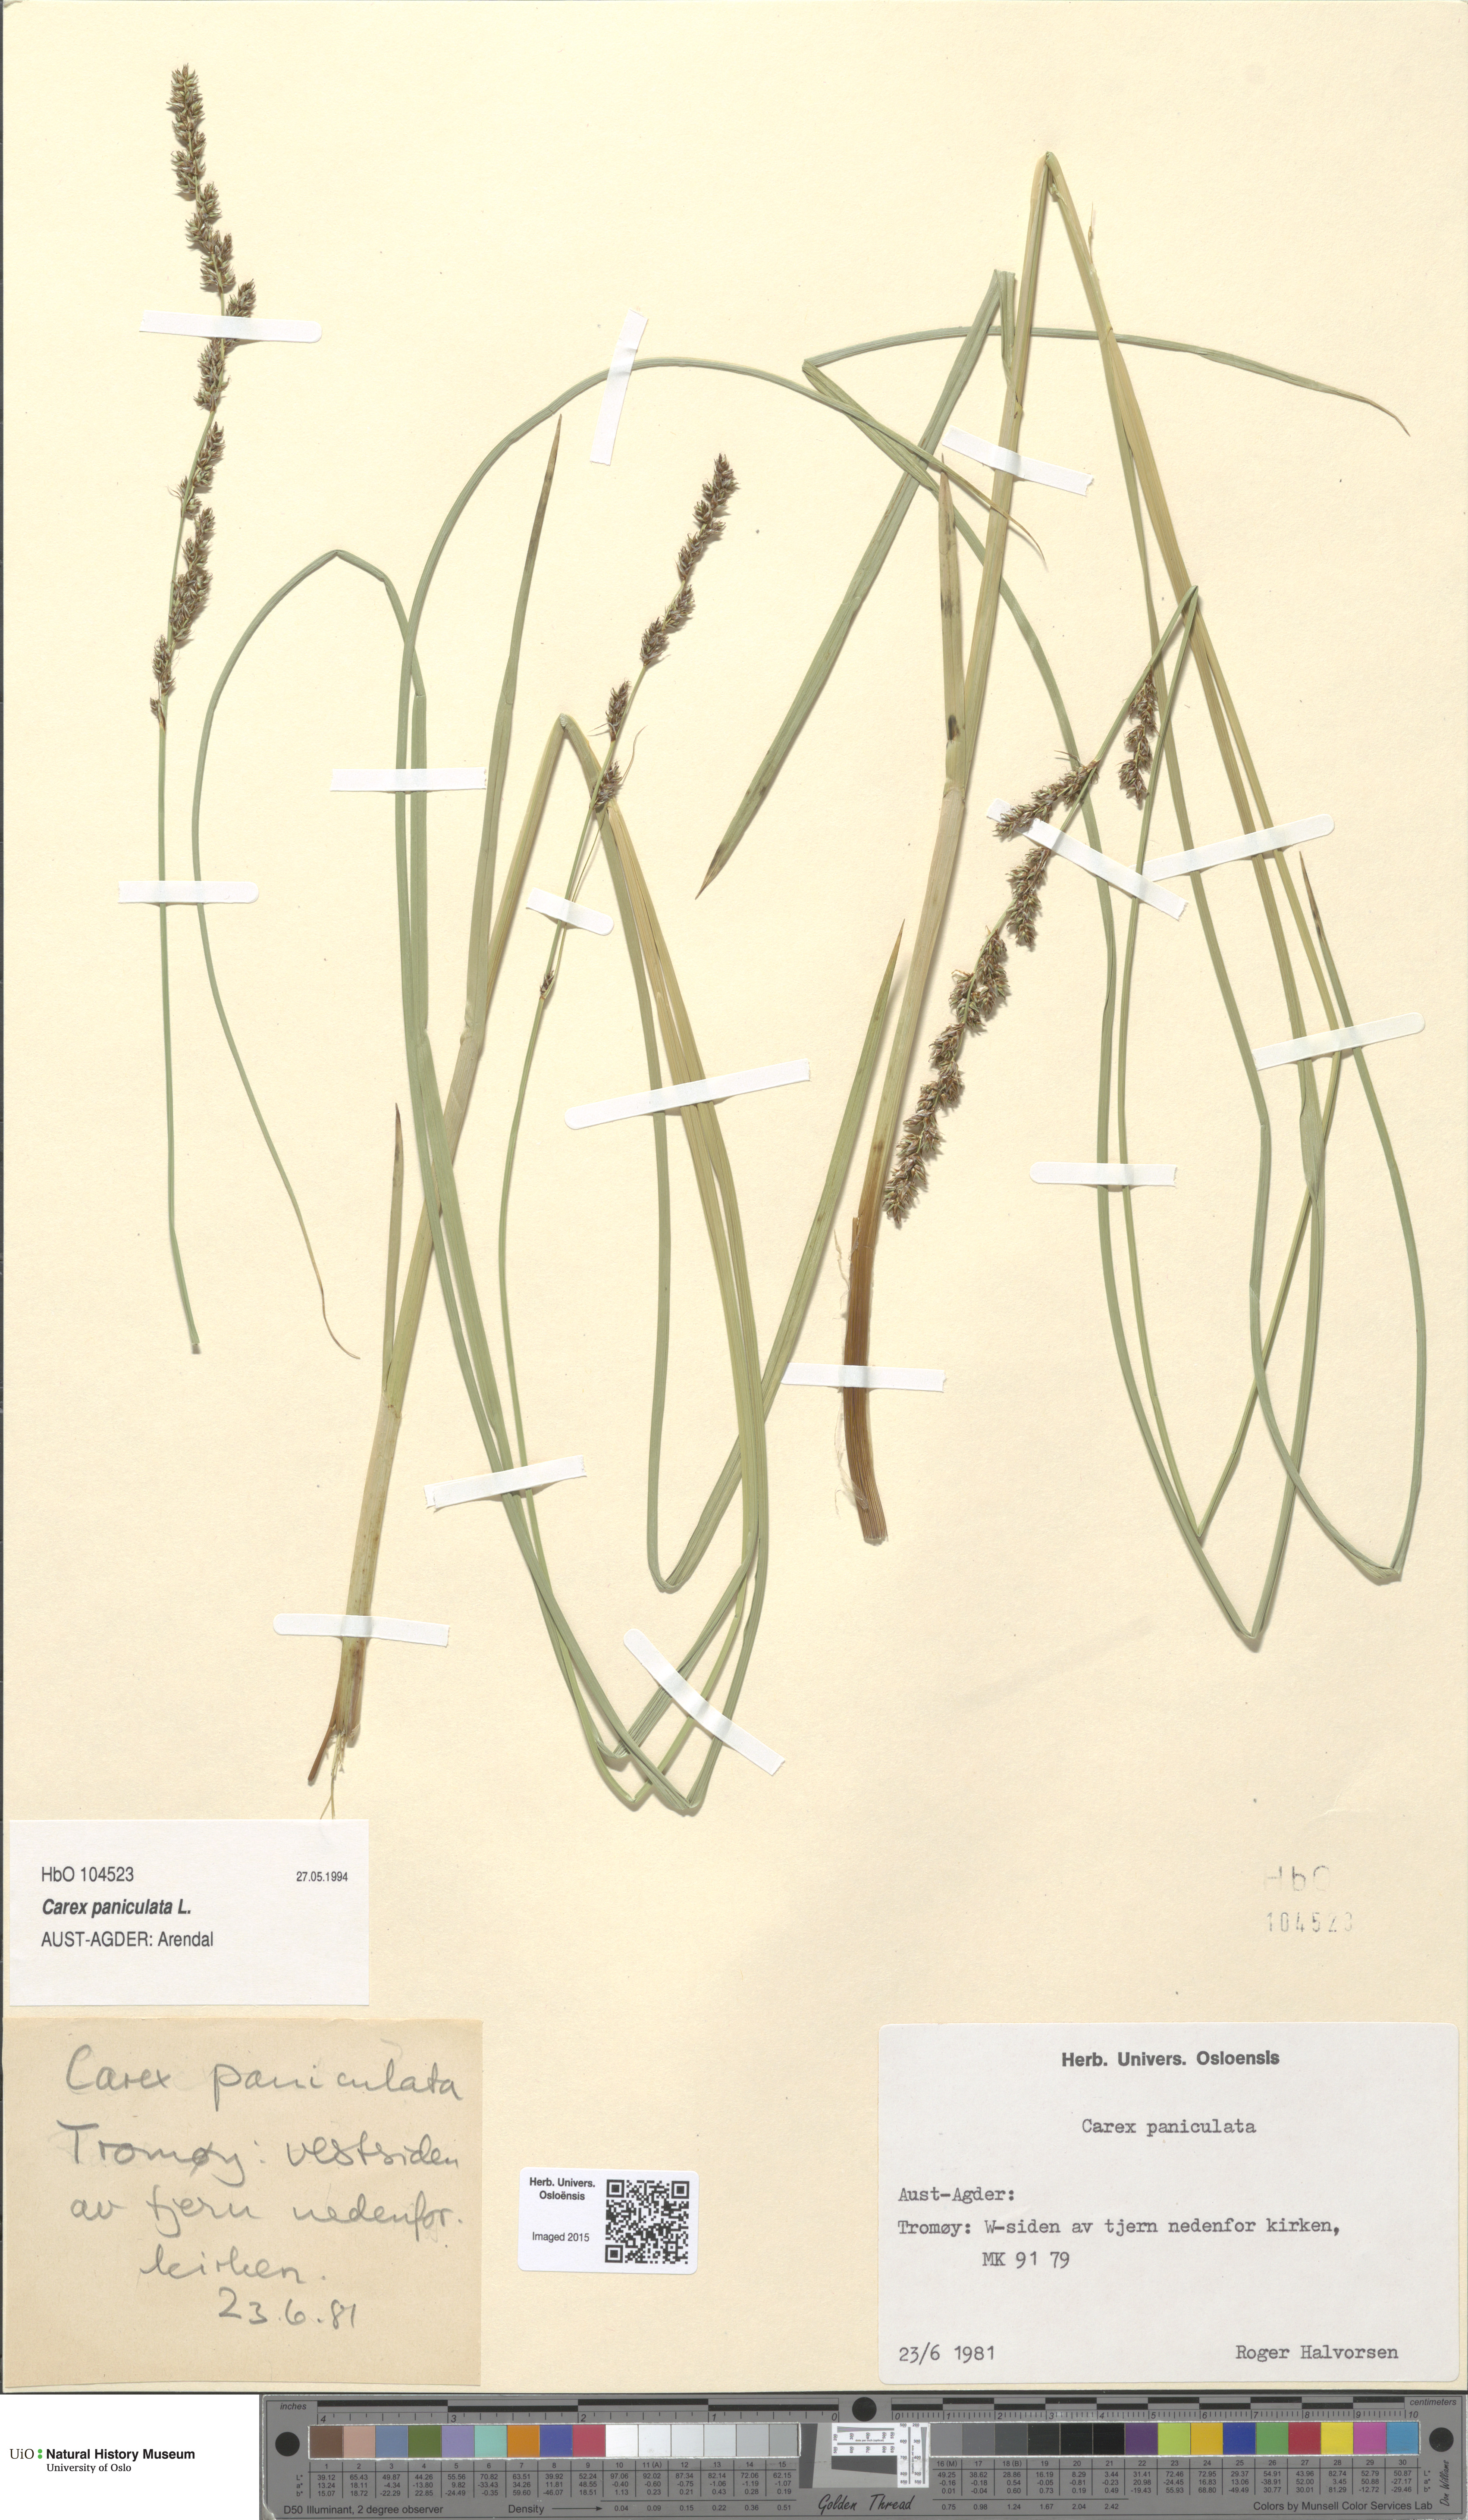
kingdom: Plantae
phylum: Tracheophyta
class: Liliopsida
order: Poales
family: Cyperaceae
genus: Carex
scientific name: Carex paniculata
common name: Greater tussock-sedge
